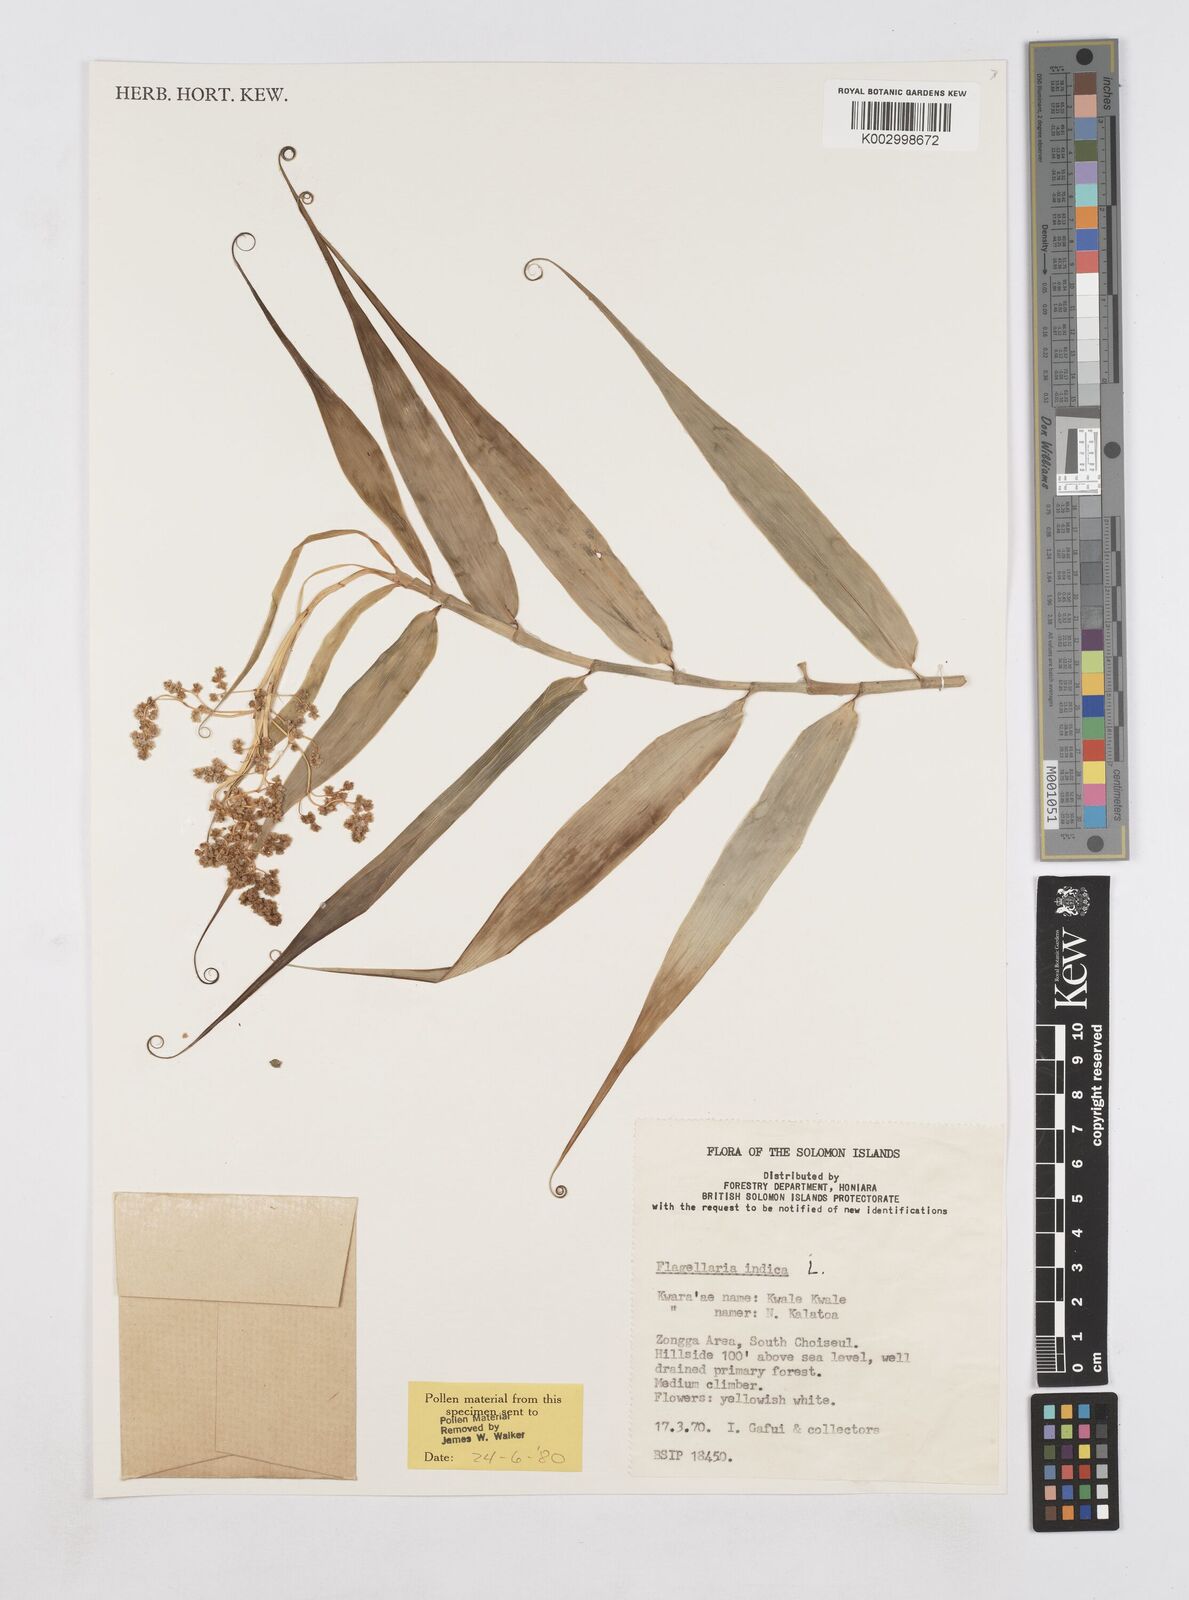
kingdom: Plantae
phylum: Tracheophyta
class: Liliopsida
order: Poales
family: Flagellariaceae
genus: Flagellaria
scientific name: Flagellaria indica
